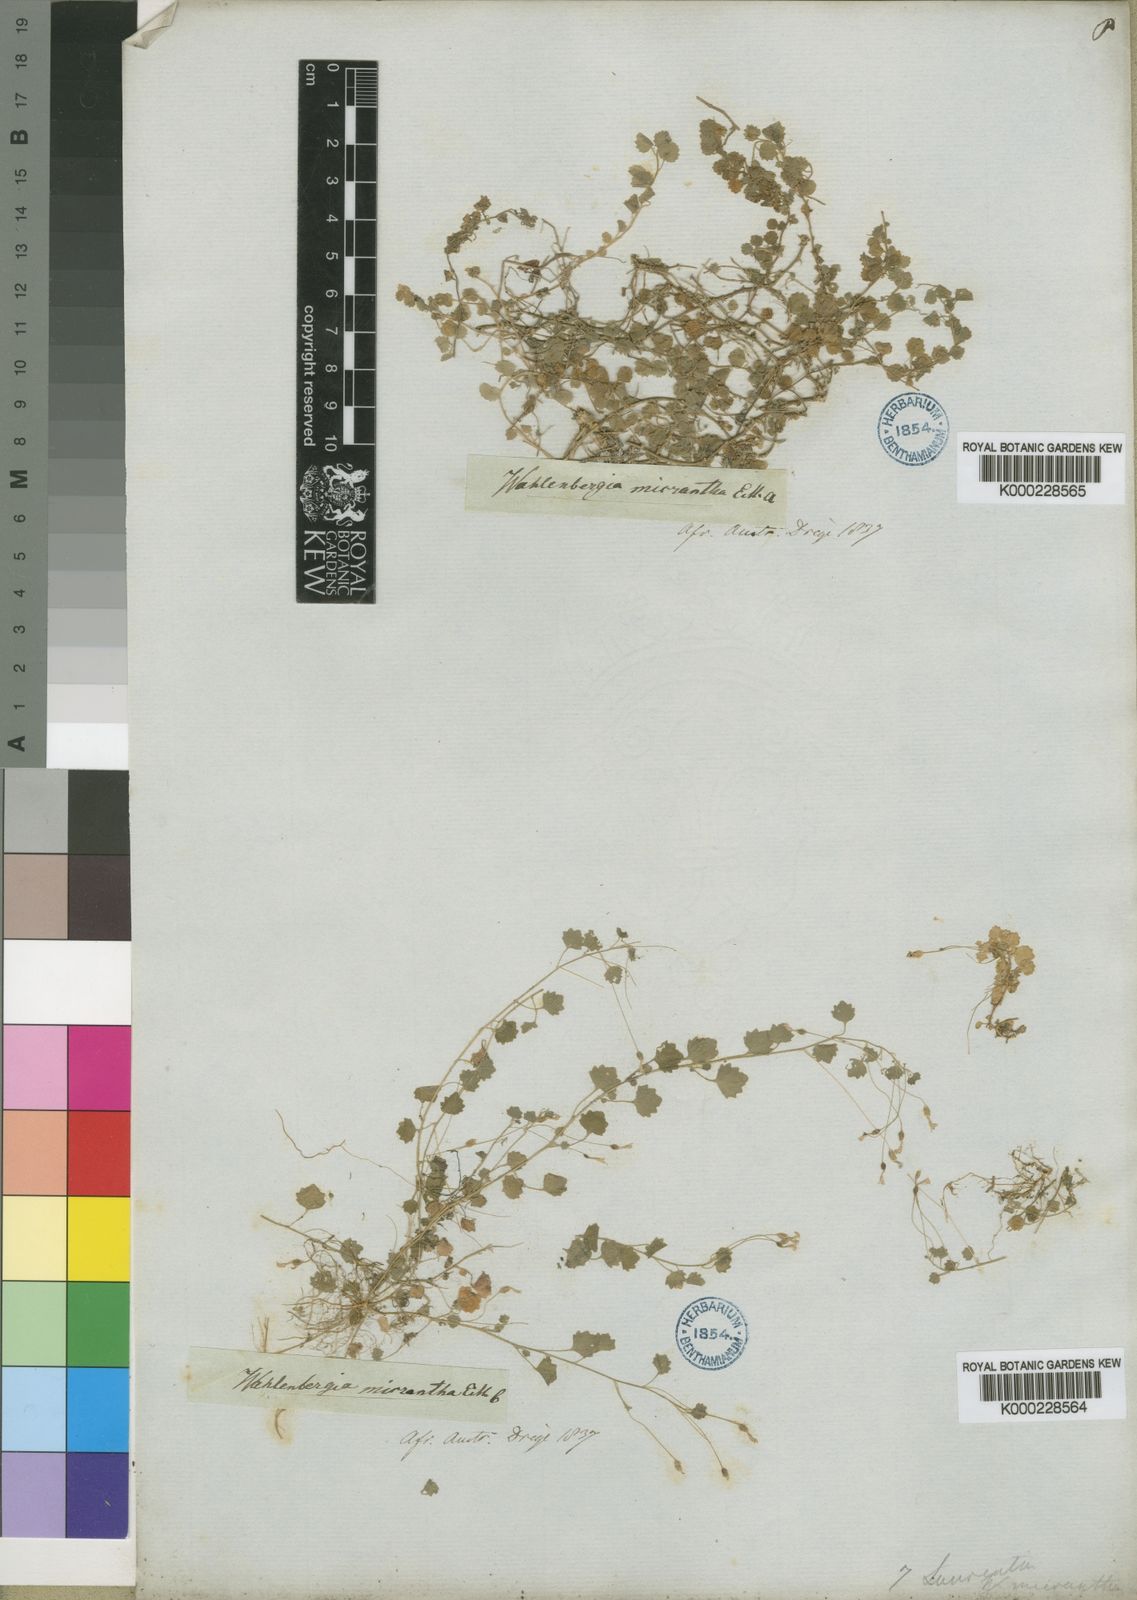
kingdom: Plantae
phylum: Tracheophyta
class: Magnoliopsida
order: Asterales
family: Campanulaceae
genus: Wahlenbergia
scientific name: Wahlenbergia pygmaea
